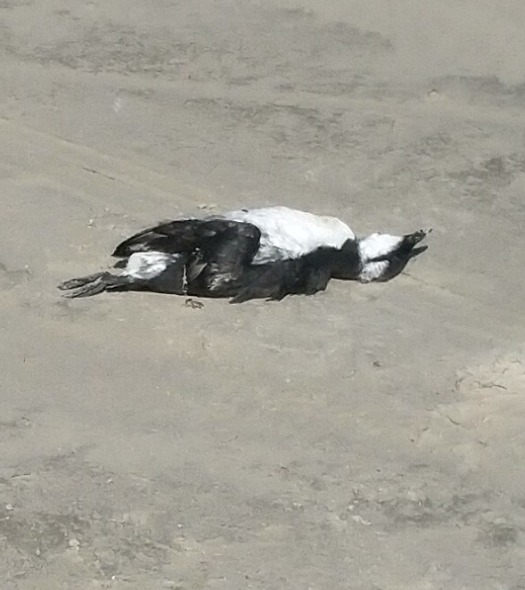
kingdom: Animalia
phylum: Chordata
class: Aves
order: Charadriiformes
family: Alcidae
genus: Uria
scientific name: Uria aalge
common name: Lomvie
